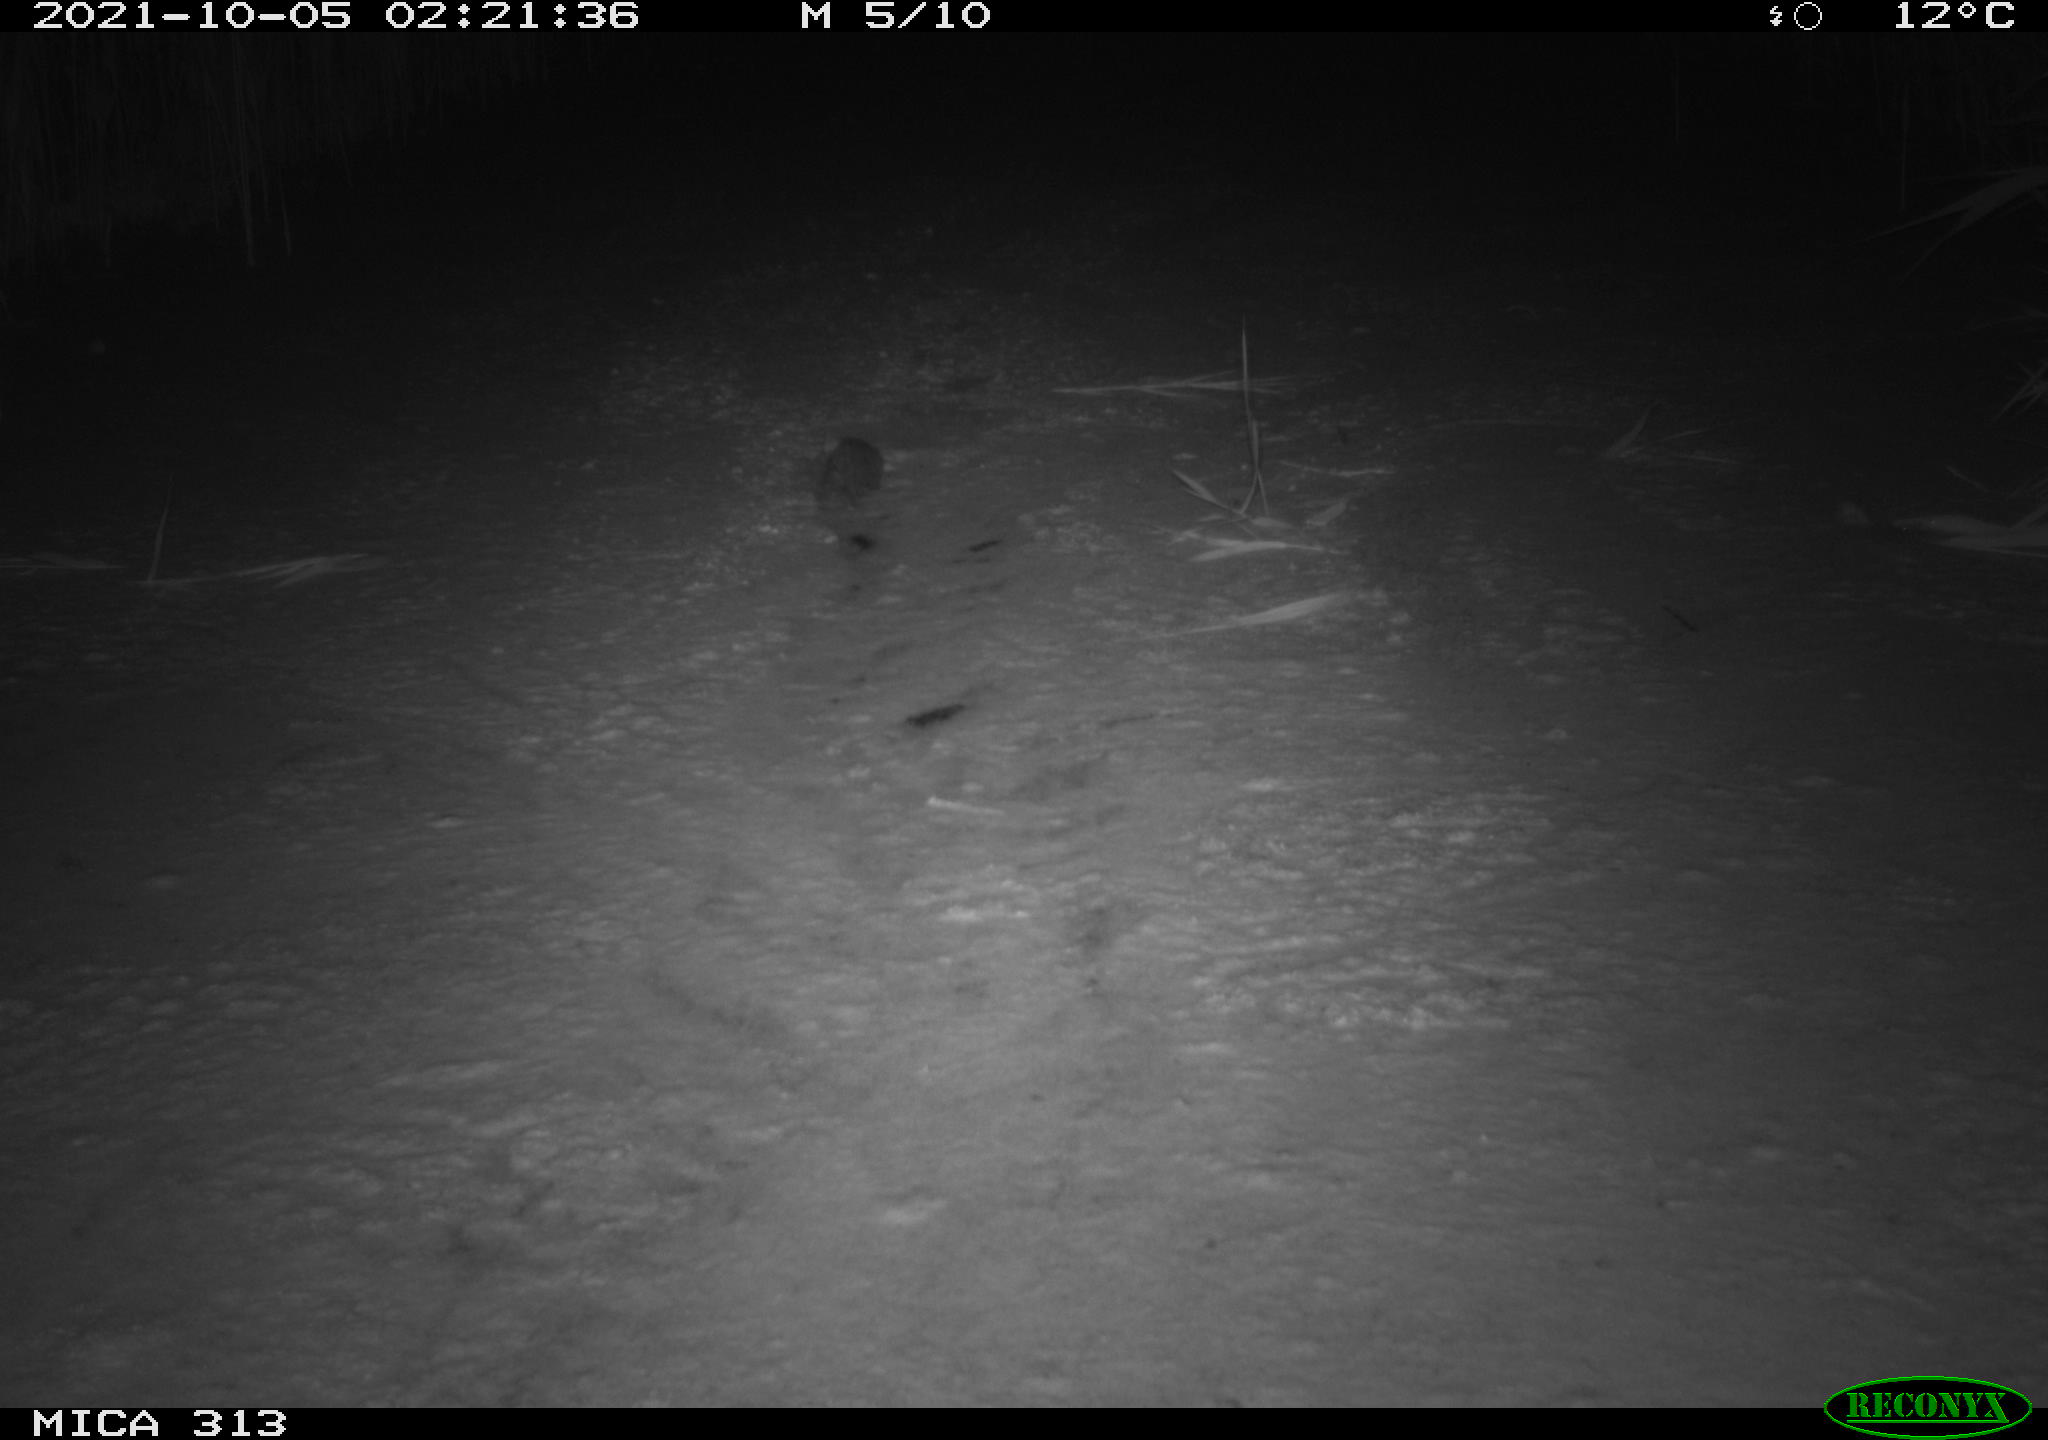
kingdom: Animalia
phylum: Chordata
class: Mammalia
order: Rodentia
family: Muridae
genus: Rattus
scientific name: Rattus norvegicus
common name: Brown rat
